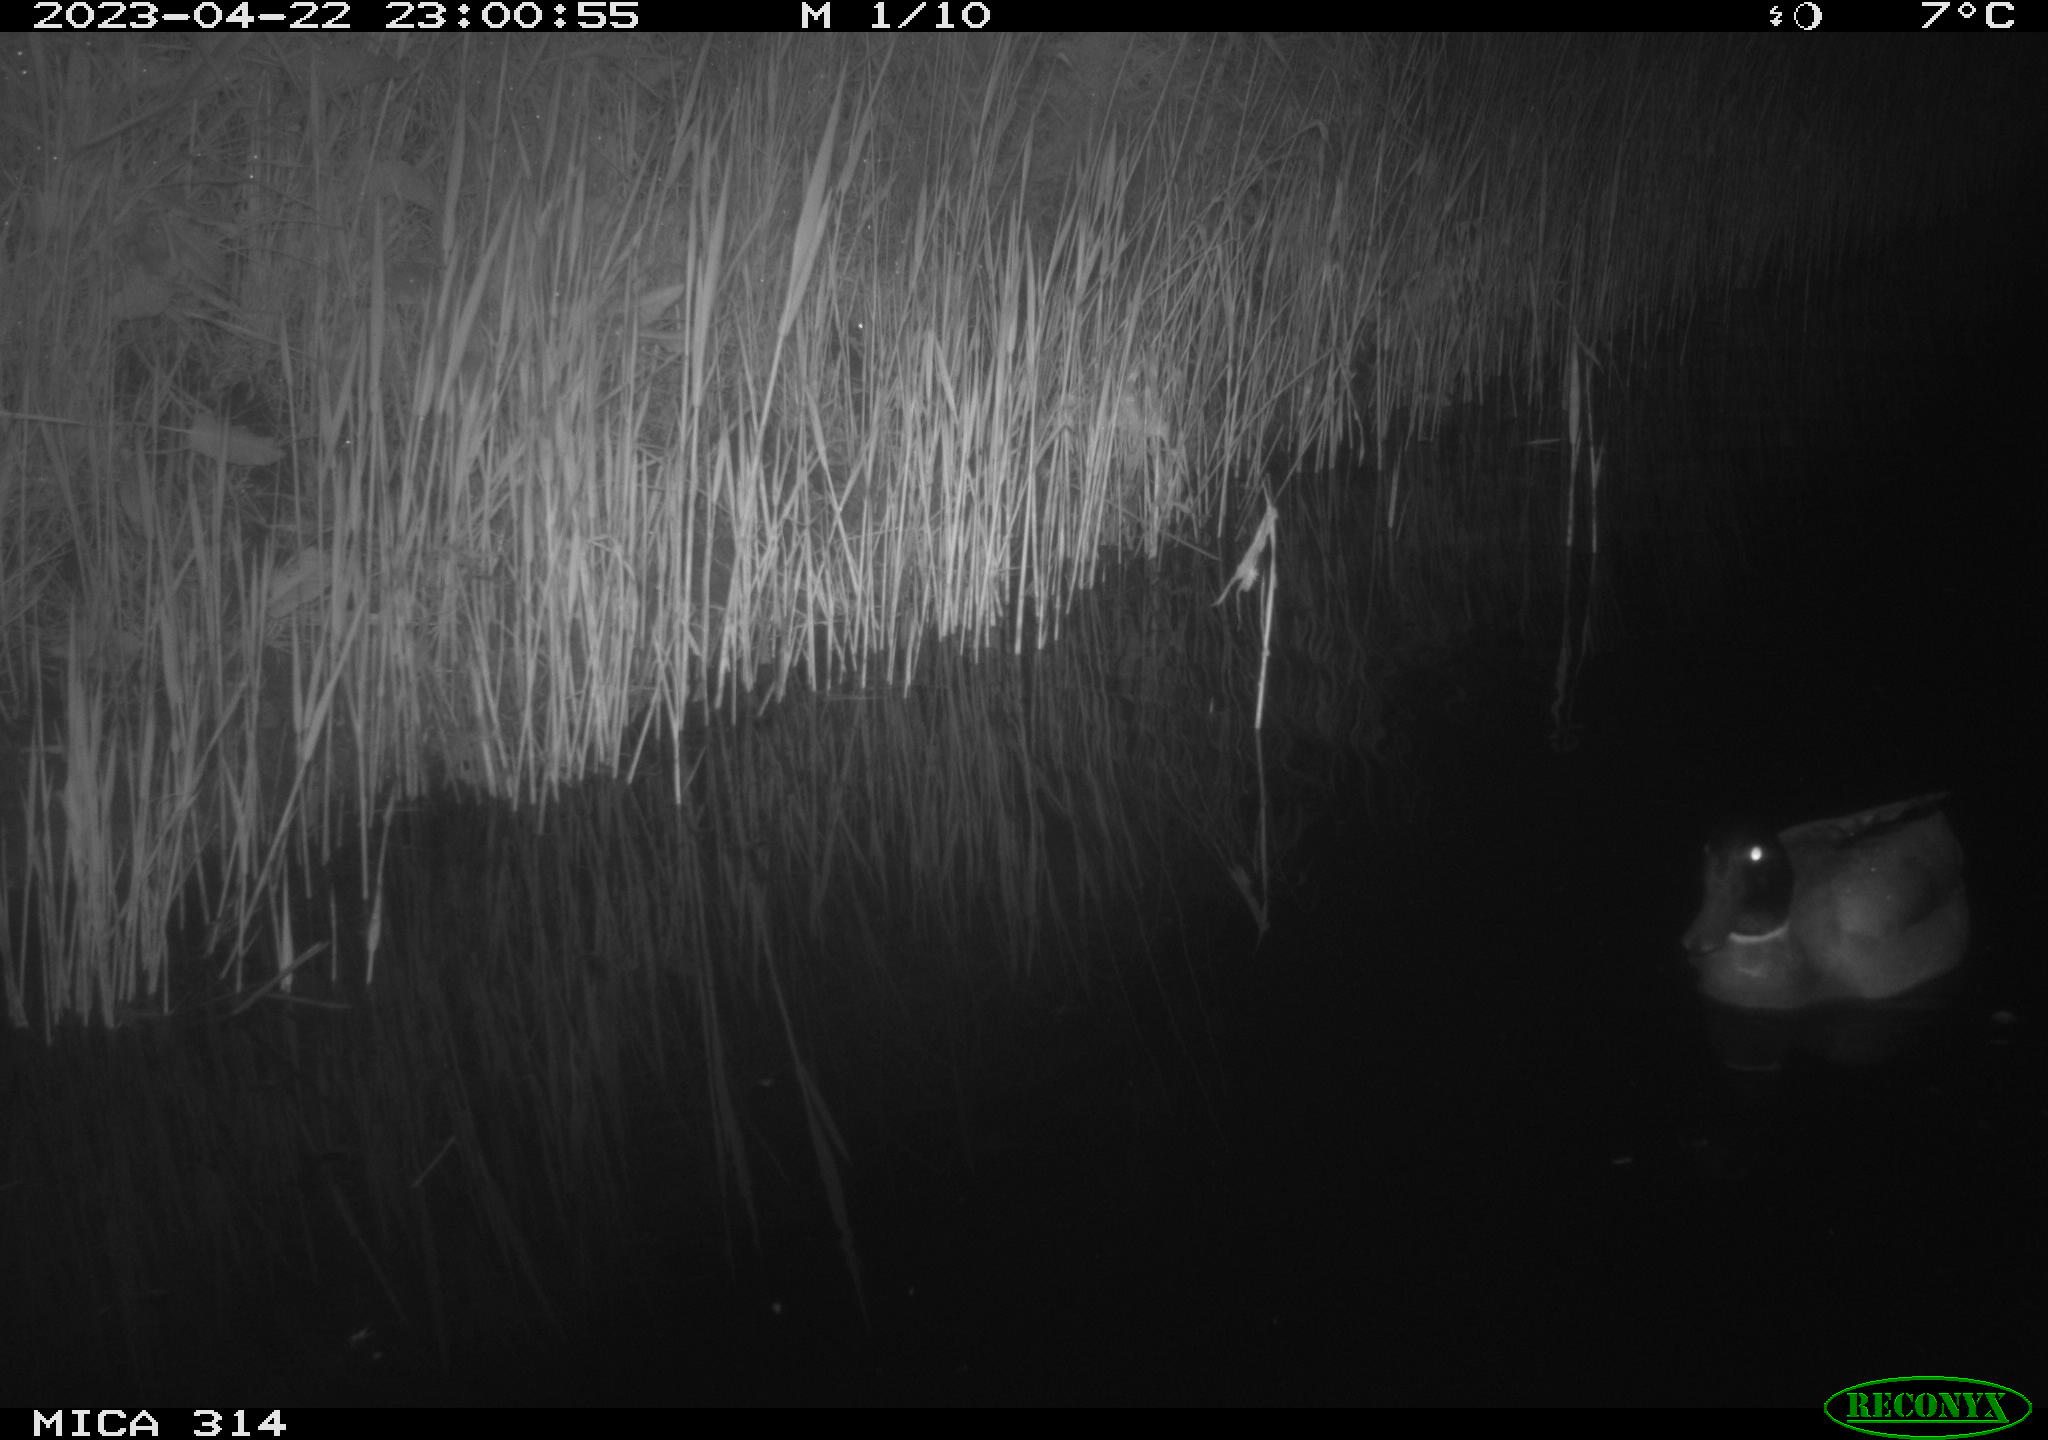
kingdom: Animalia
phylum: Chordata
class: Aves
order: Anseriformes
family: Anatidae
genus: Anas
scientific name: Anas
